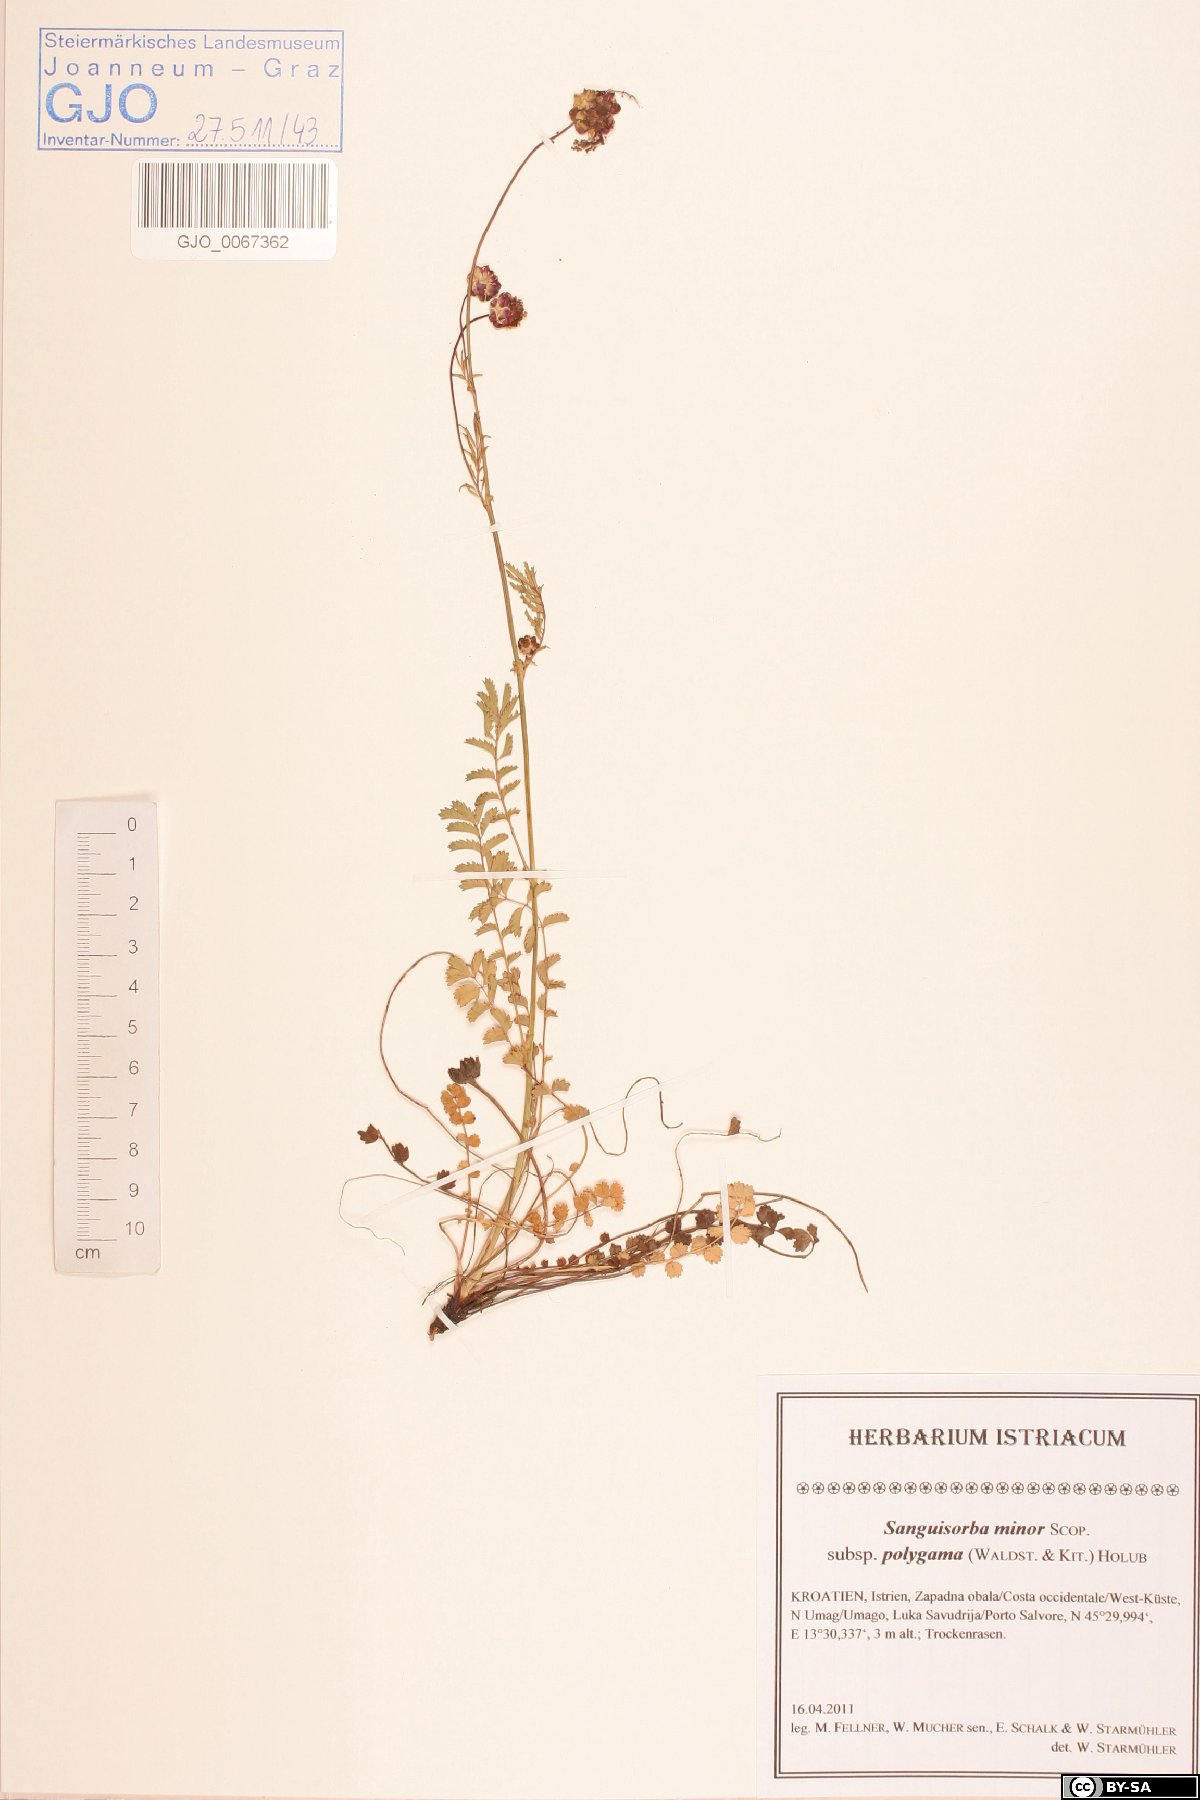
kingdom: Plantae
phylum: Tracheophyta
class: Magnoliopsida
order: Rosales
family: Rosaceae
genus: Poterium
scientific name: Poterium sanguisorba
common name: Salad burnet
